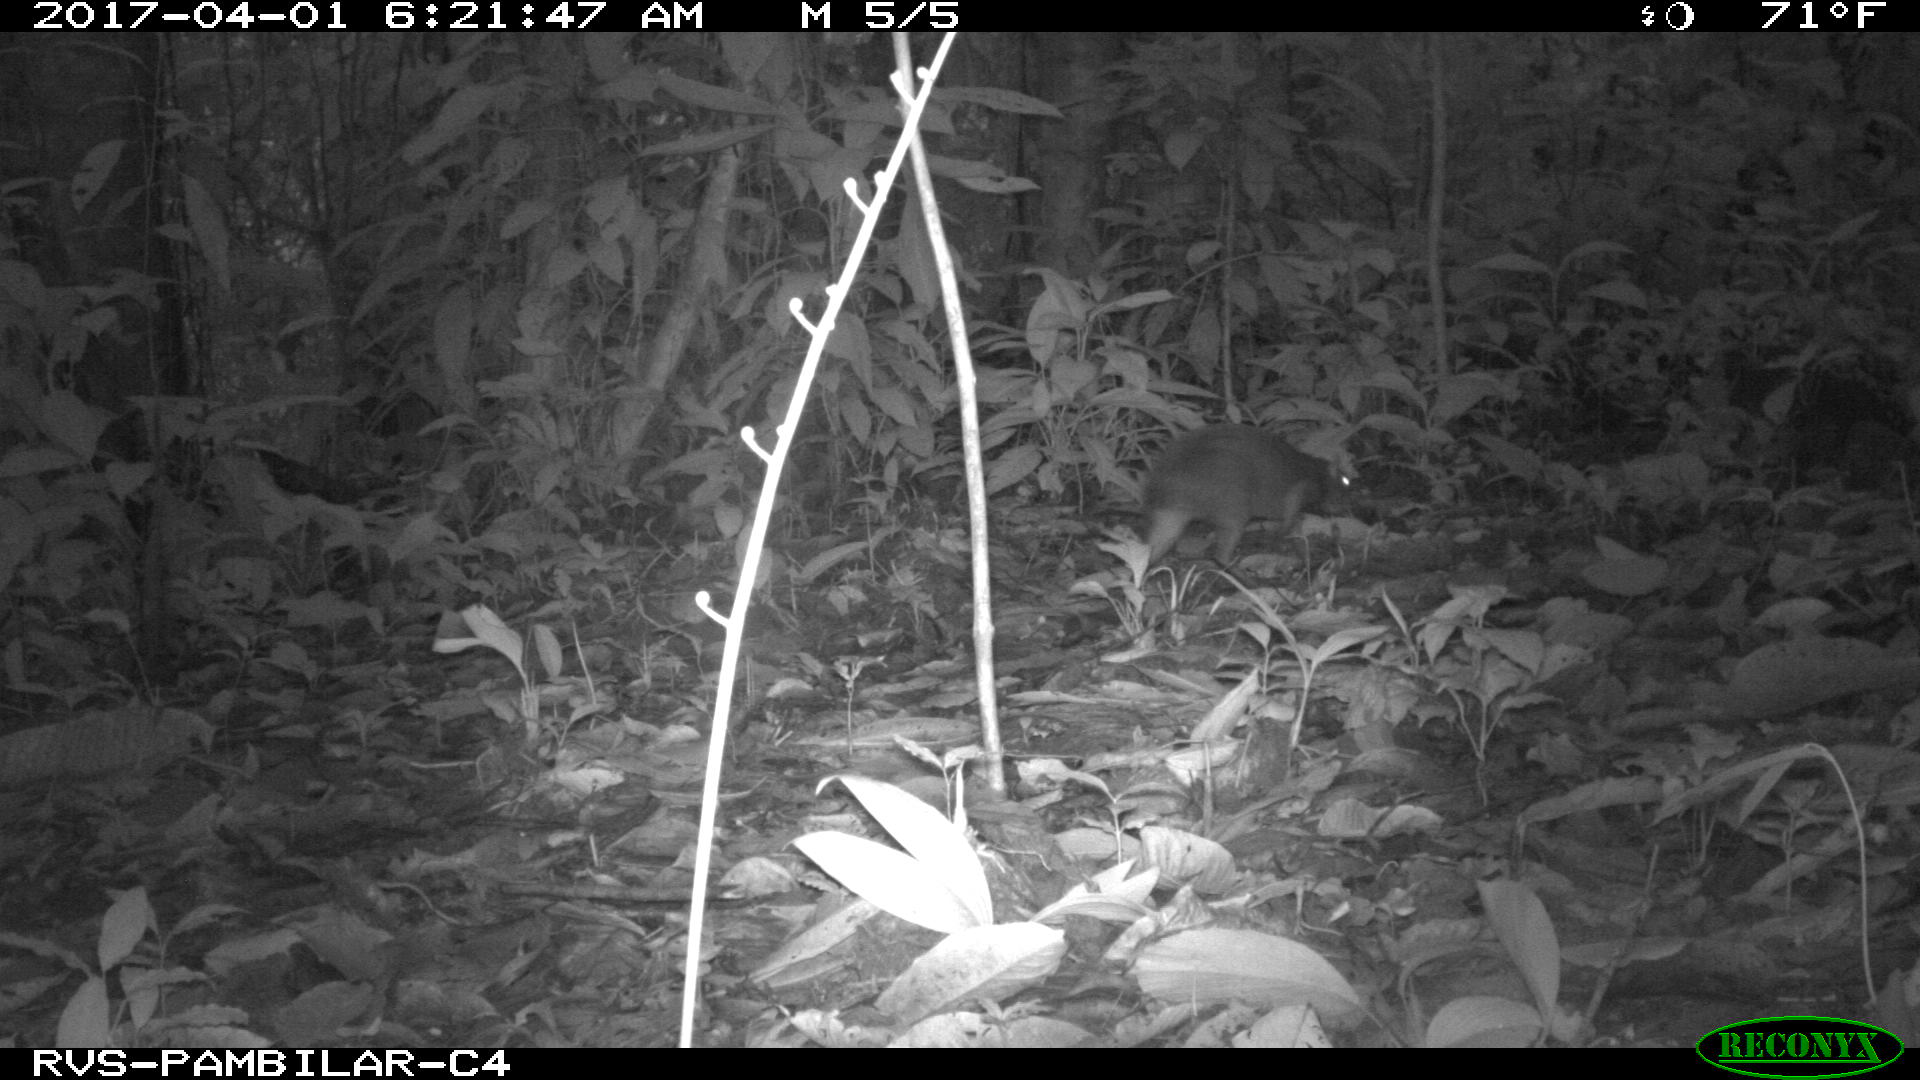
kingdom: Animalia
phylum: Chordata
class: Mammalia
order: Rodentia
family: Dasyproctidae
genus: Dasyprocta
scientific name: Dasyprocta punctata
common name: Central american agouti
